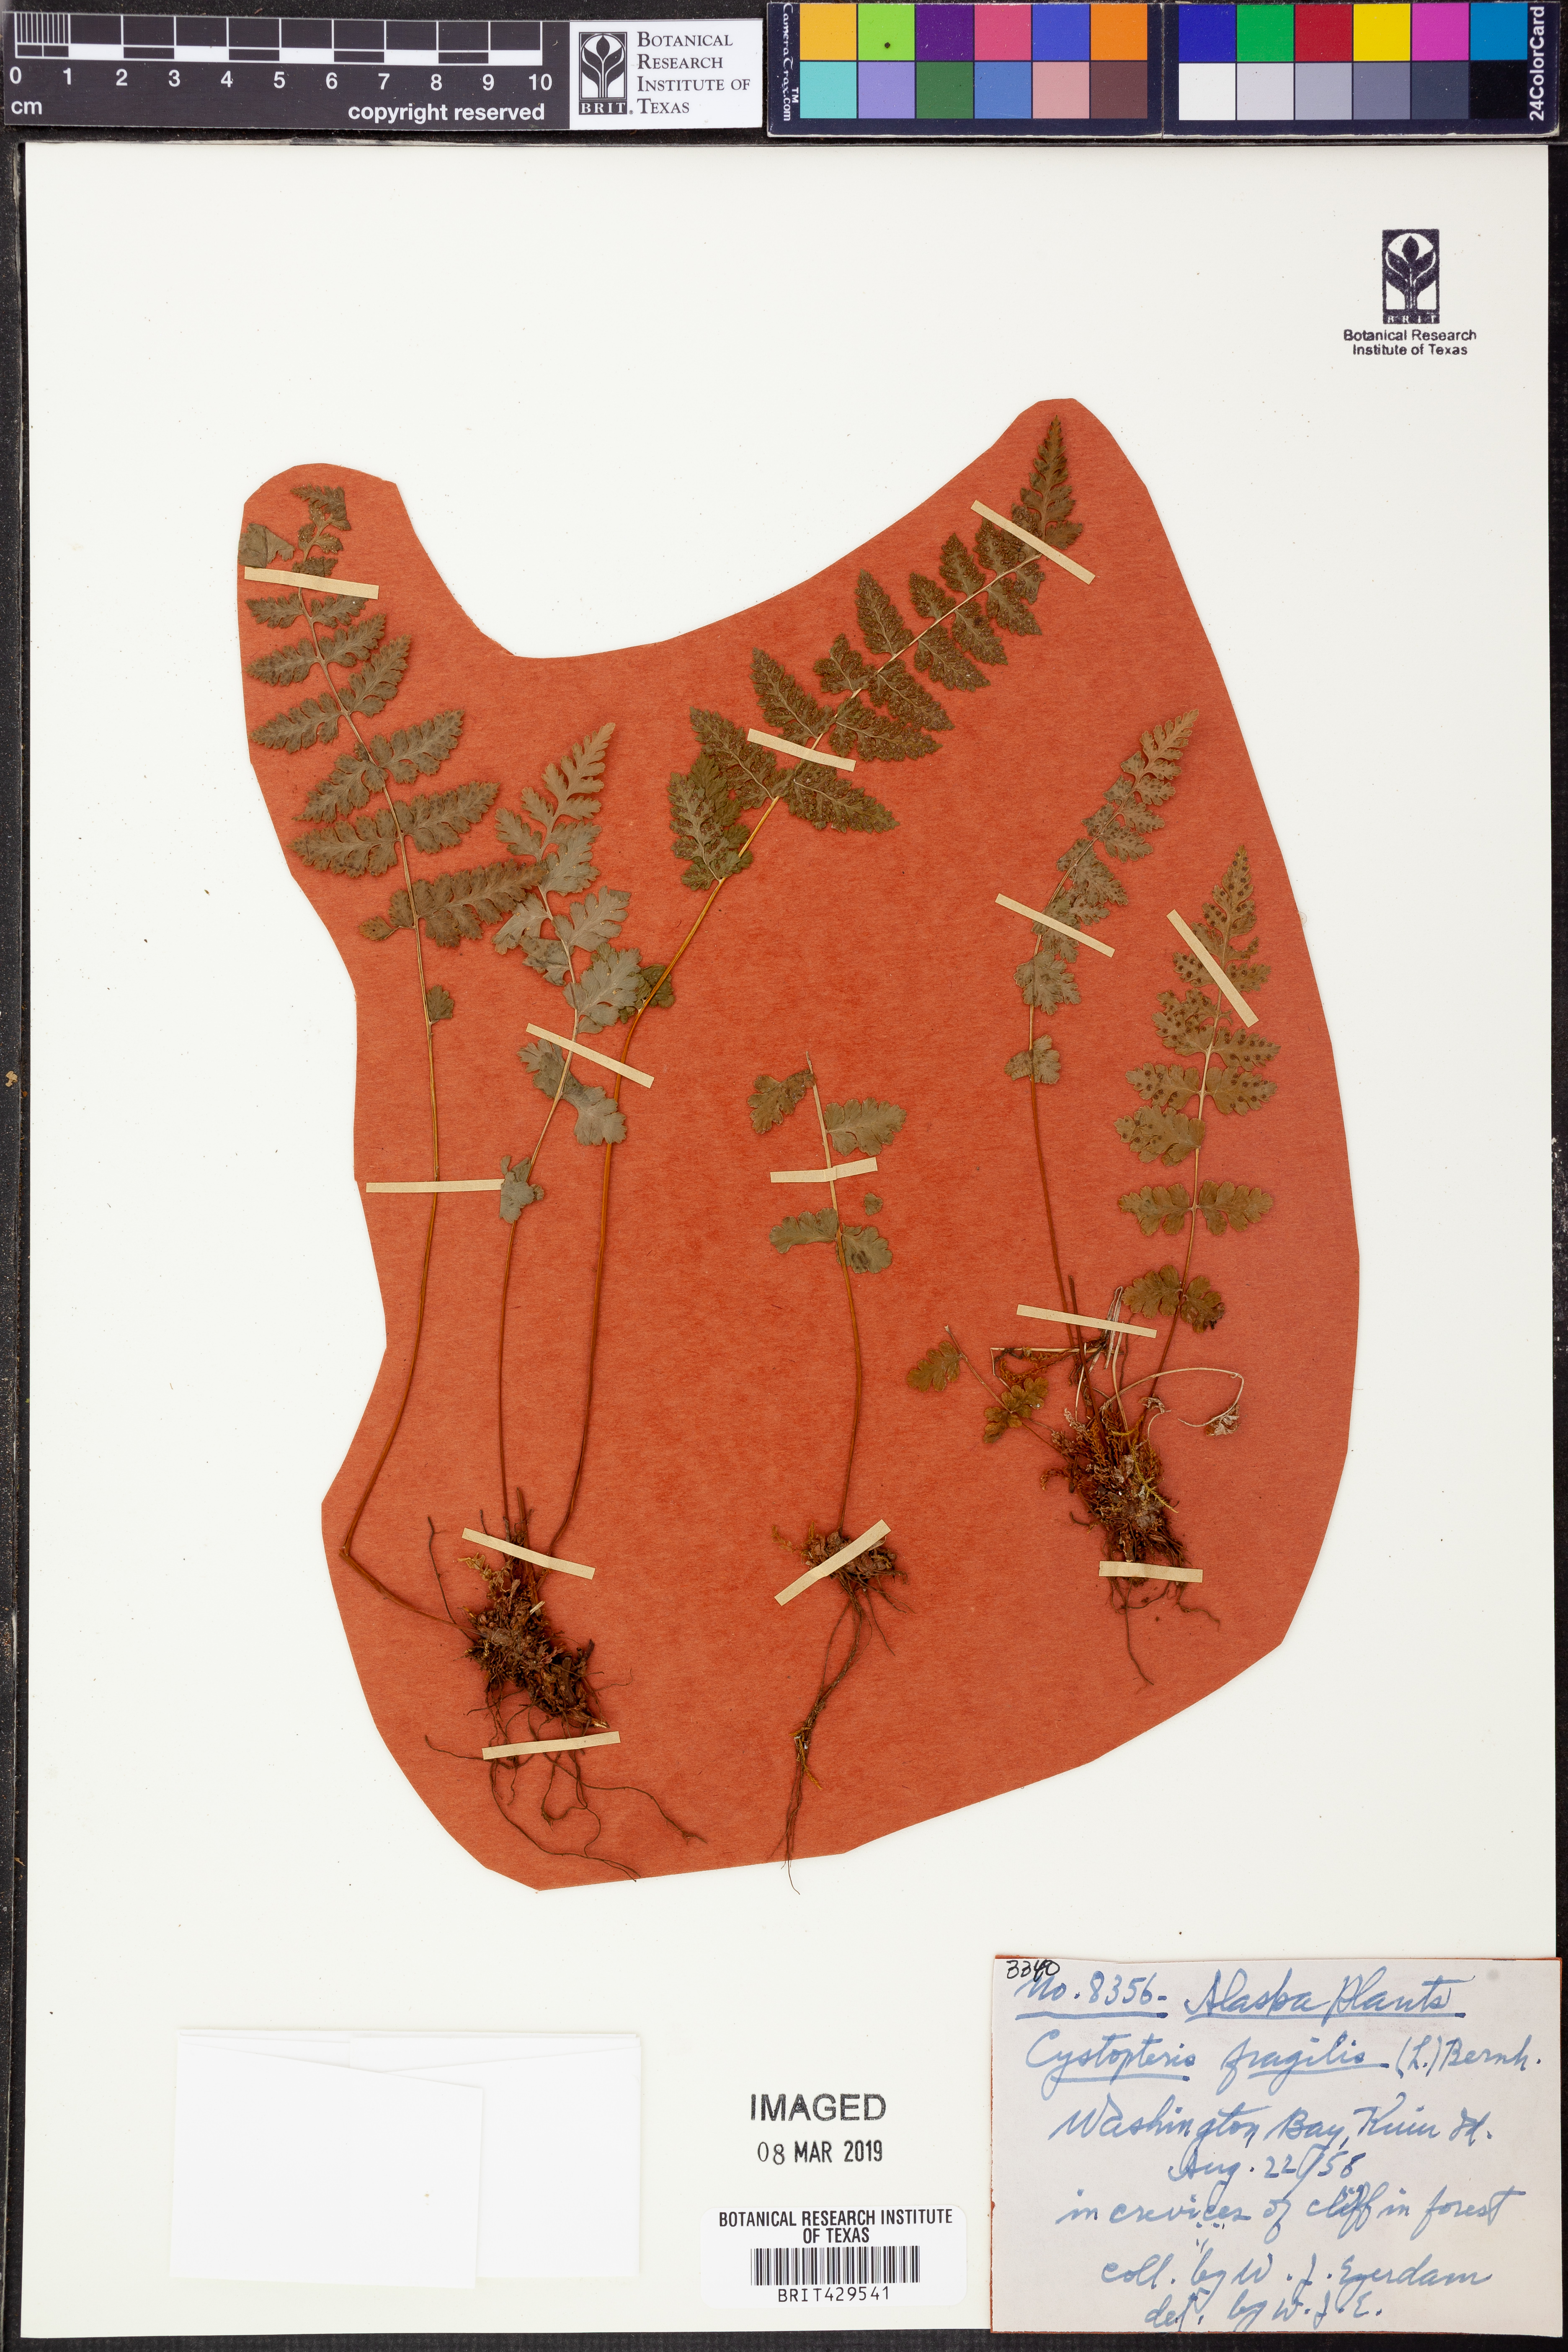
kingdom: Plantae
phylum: Tracheophyta
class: Polypodiopsida
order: Polypodiales
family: Cystopteridaceae
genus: Cystopteris
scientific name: Cystopteris fragilis
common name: Brittle bladder fern
